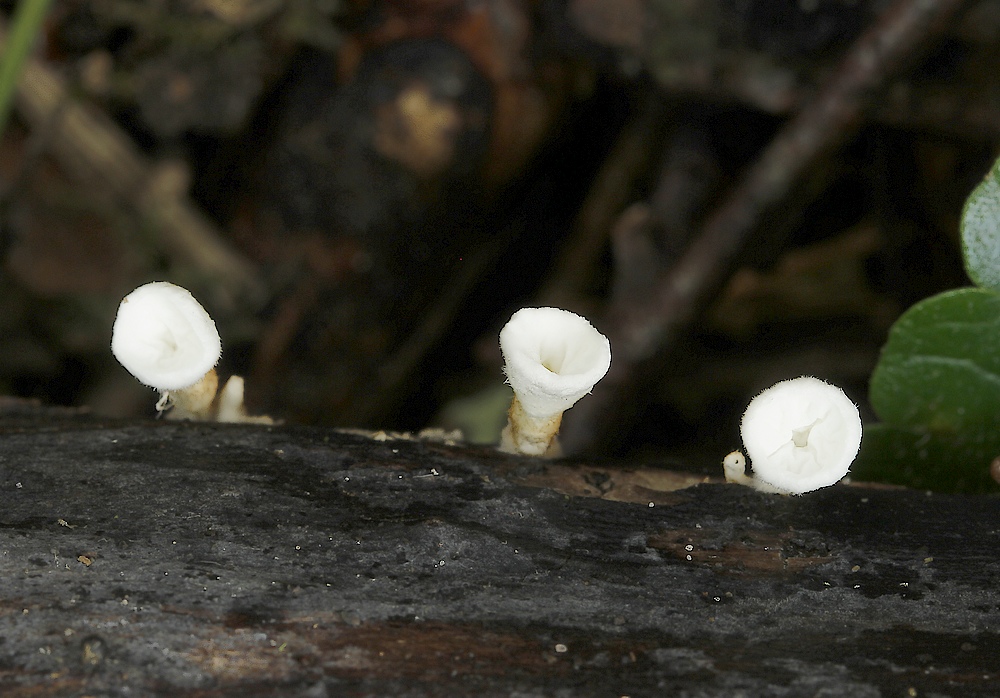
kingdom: Fungi
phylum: Basidiomycota
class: Agaricomycetes
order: Amylocorticiales
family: Amylocorticiaceae
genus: Plicaturopsis
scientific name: Plicaturopsis crispa
